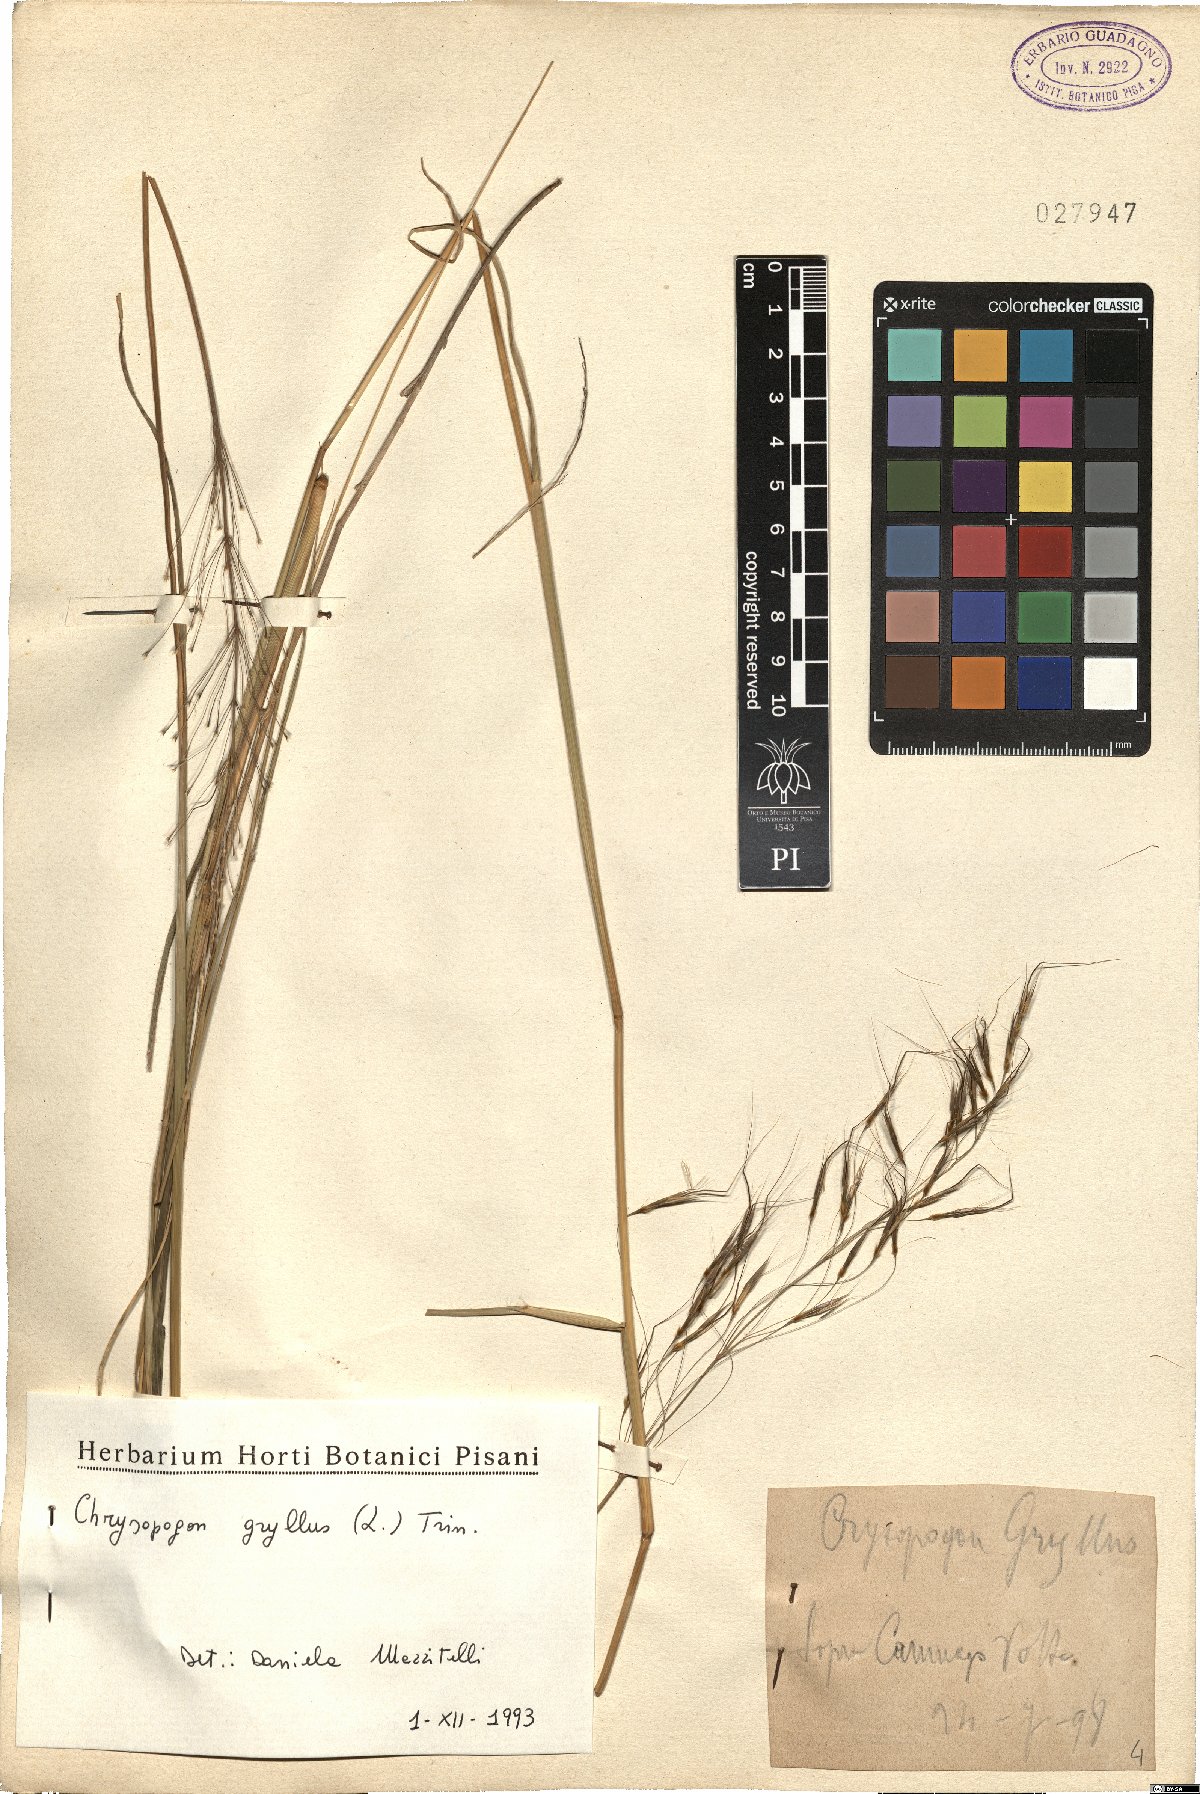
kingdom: Plantae
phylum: Tracheophyta
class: Liliopsida
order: Poales
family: Poaceae
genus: Chrysopogon
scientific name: Chrysopogon gryllus
